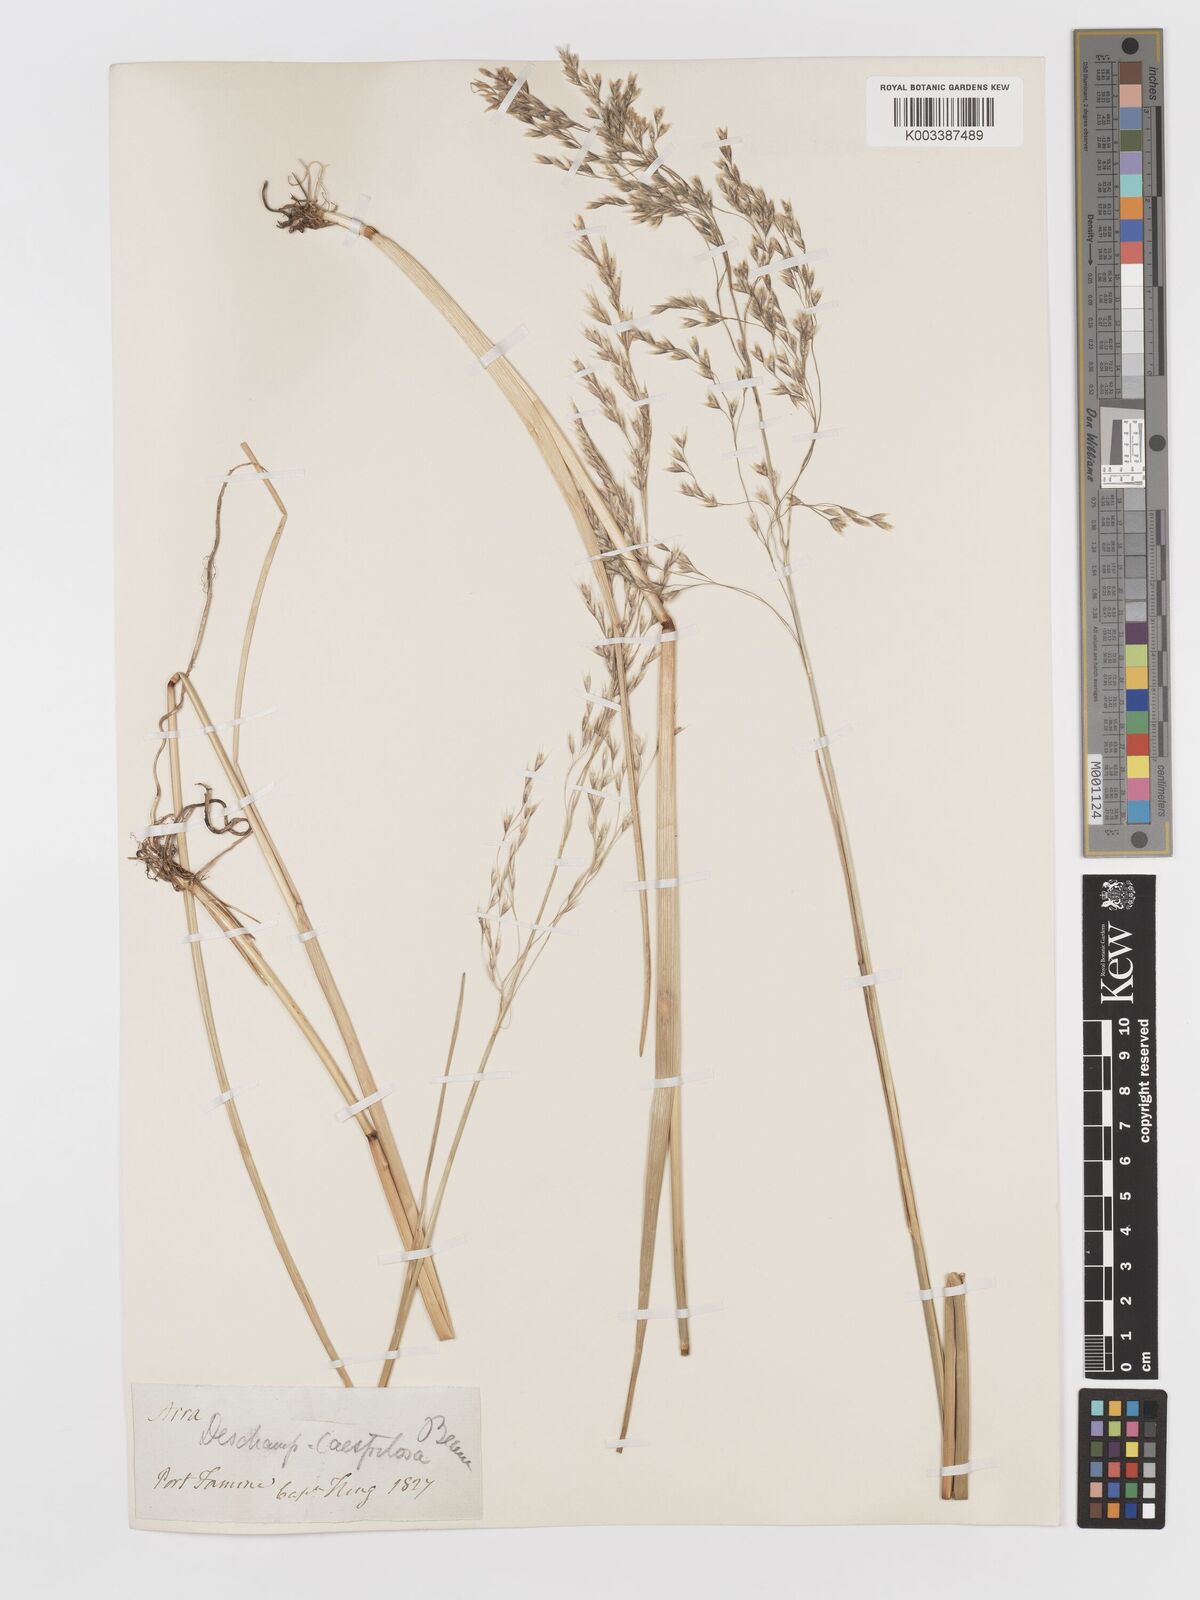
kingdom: Plantae
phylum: Tracheophyta
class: Liliopsida
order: Poales
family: Poaceae
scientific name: Poaceae
